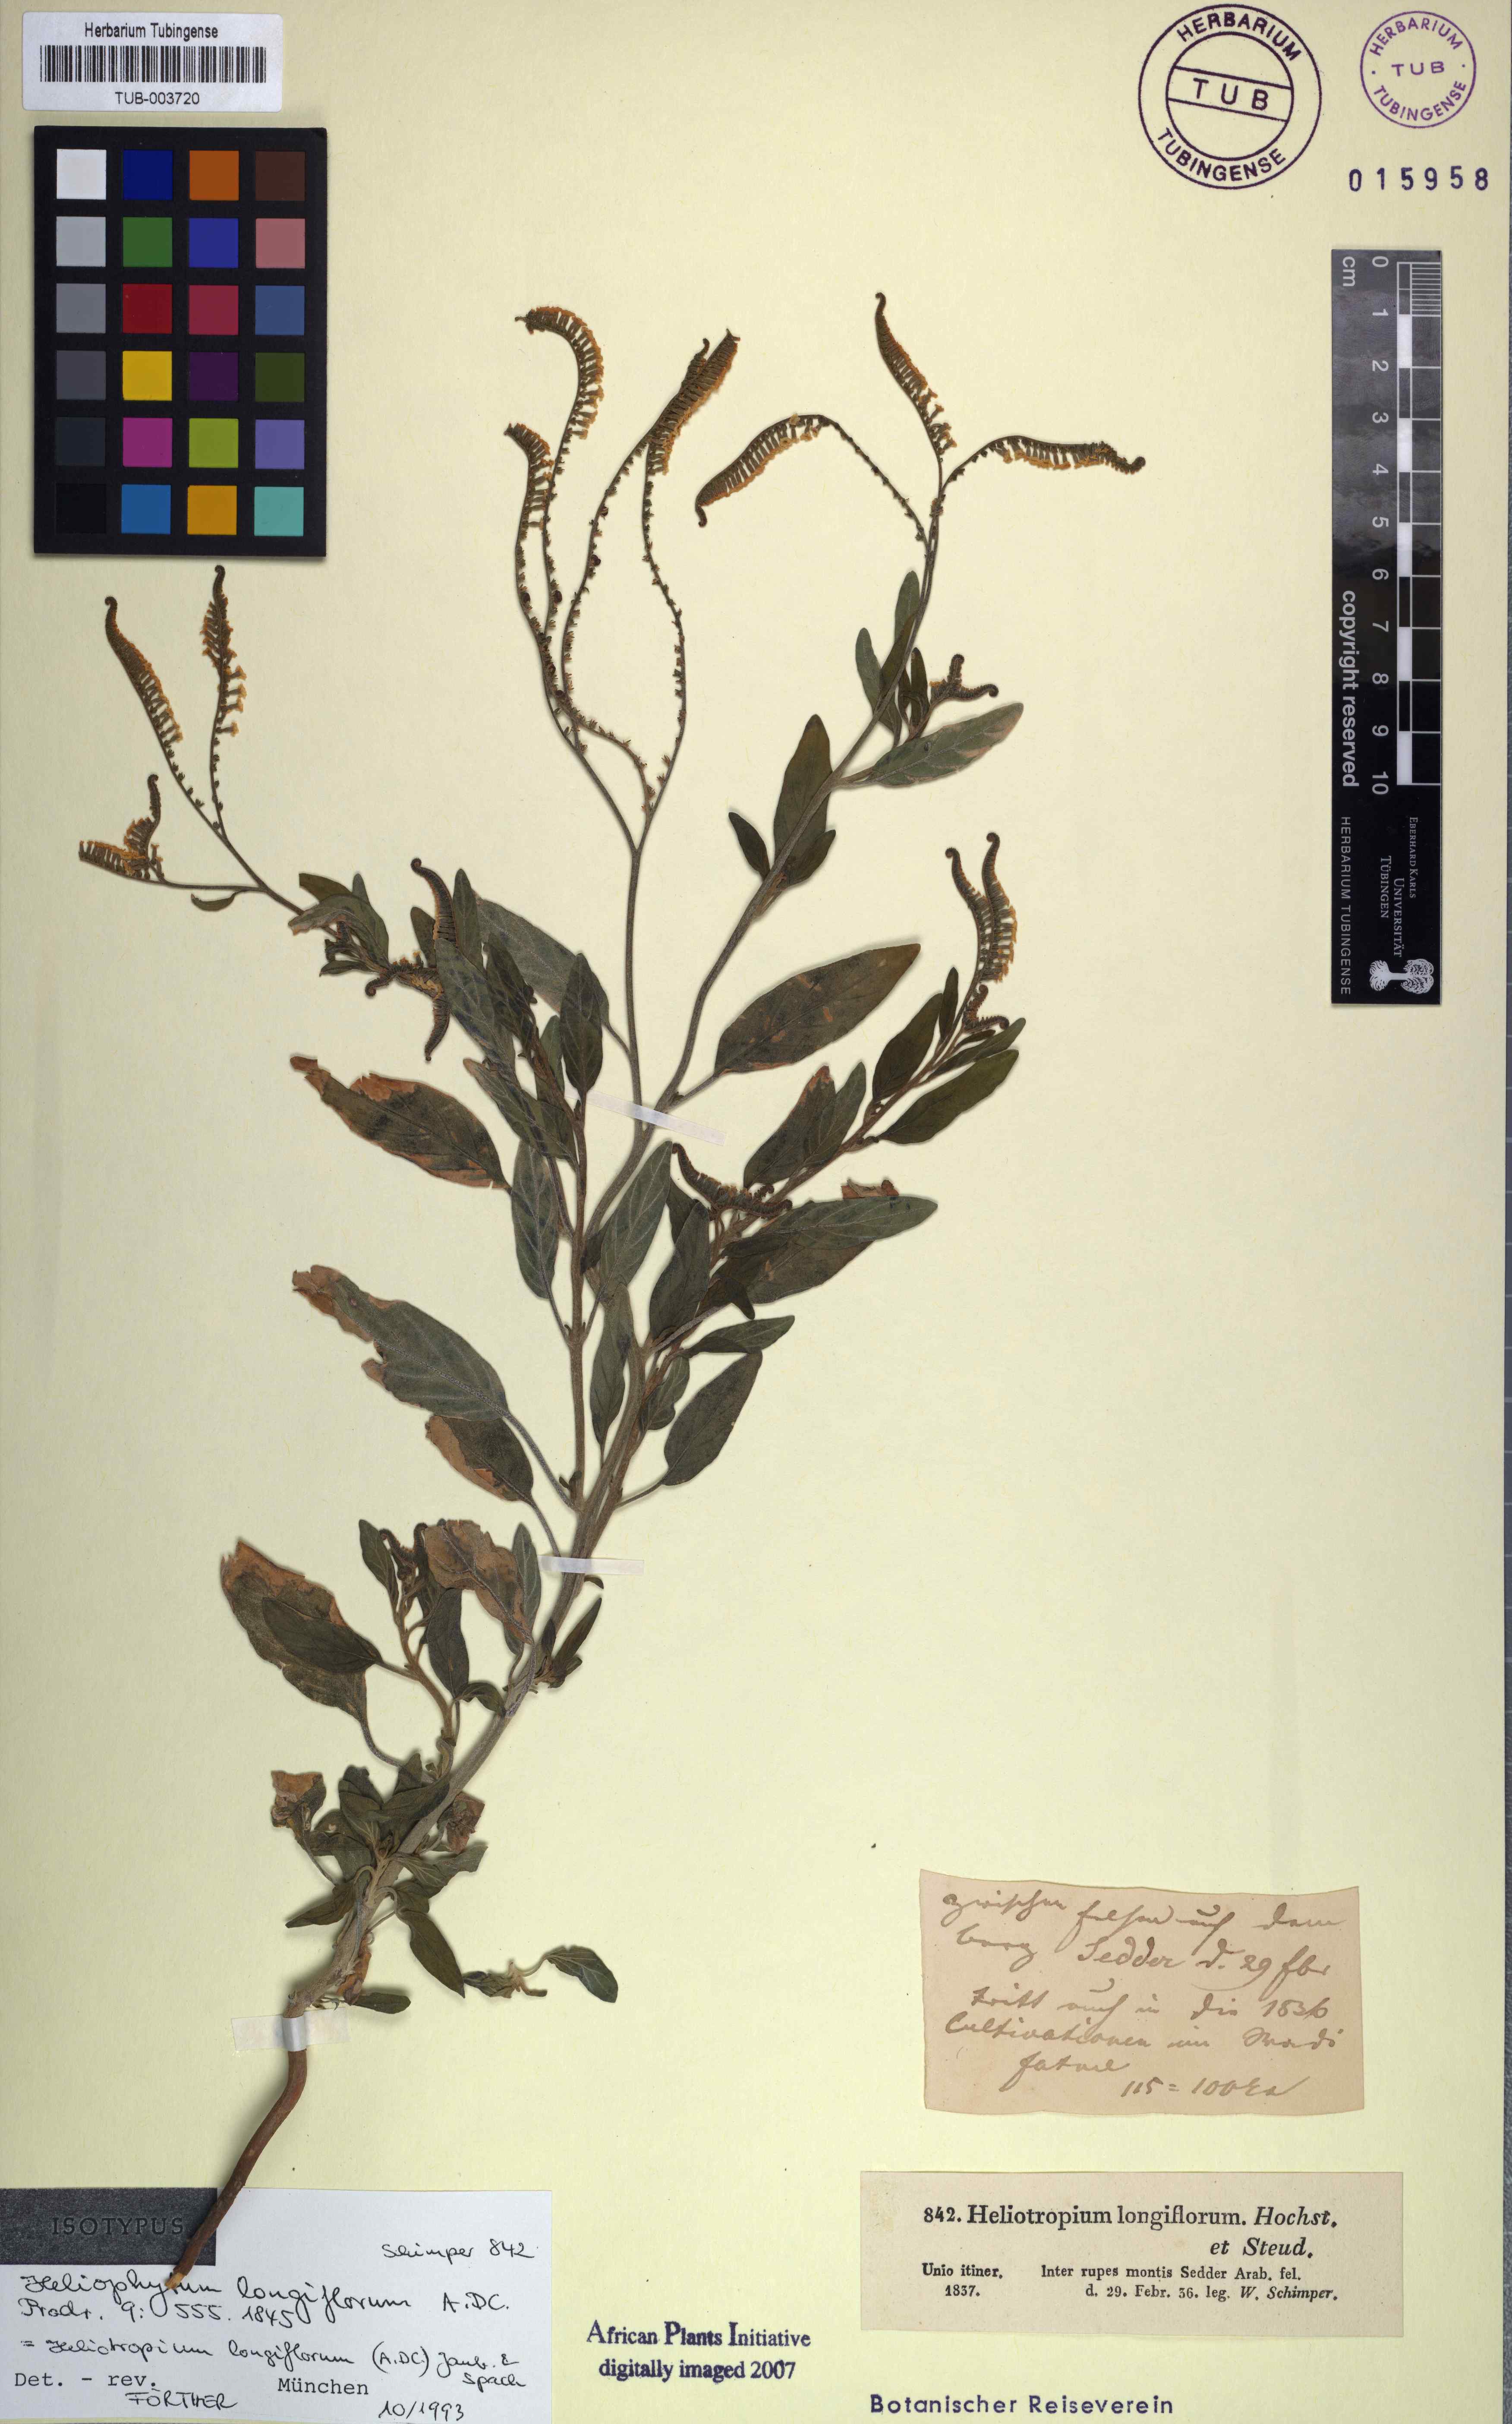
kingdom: Plantae
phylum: Tracheophyta
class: Magnoliopsida
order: Boraginales
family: Heliotropiaceae
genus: Heliotropium
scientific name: Heliotropium longiflorum
